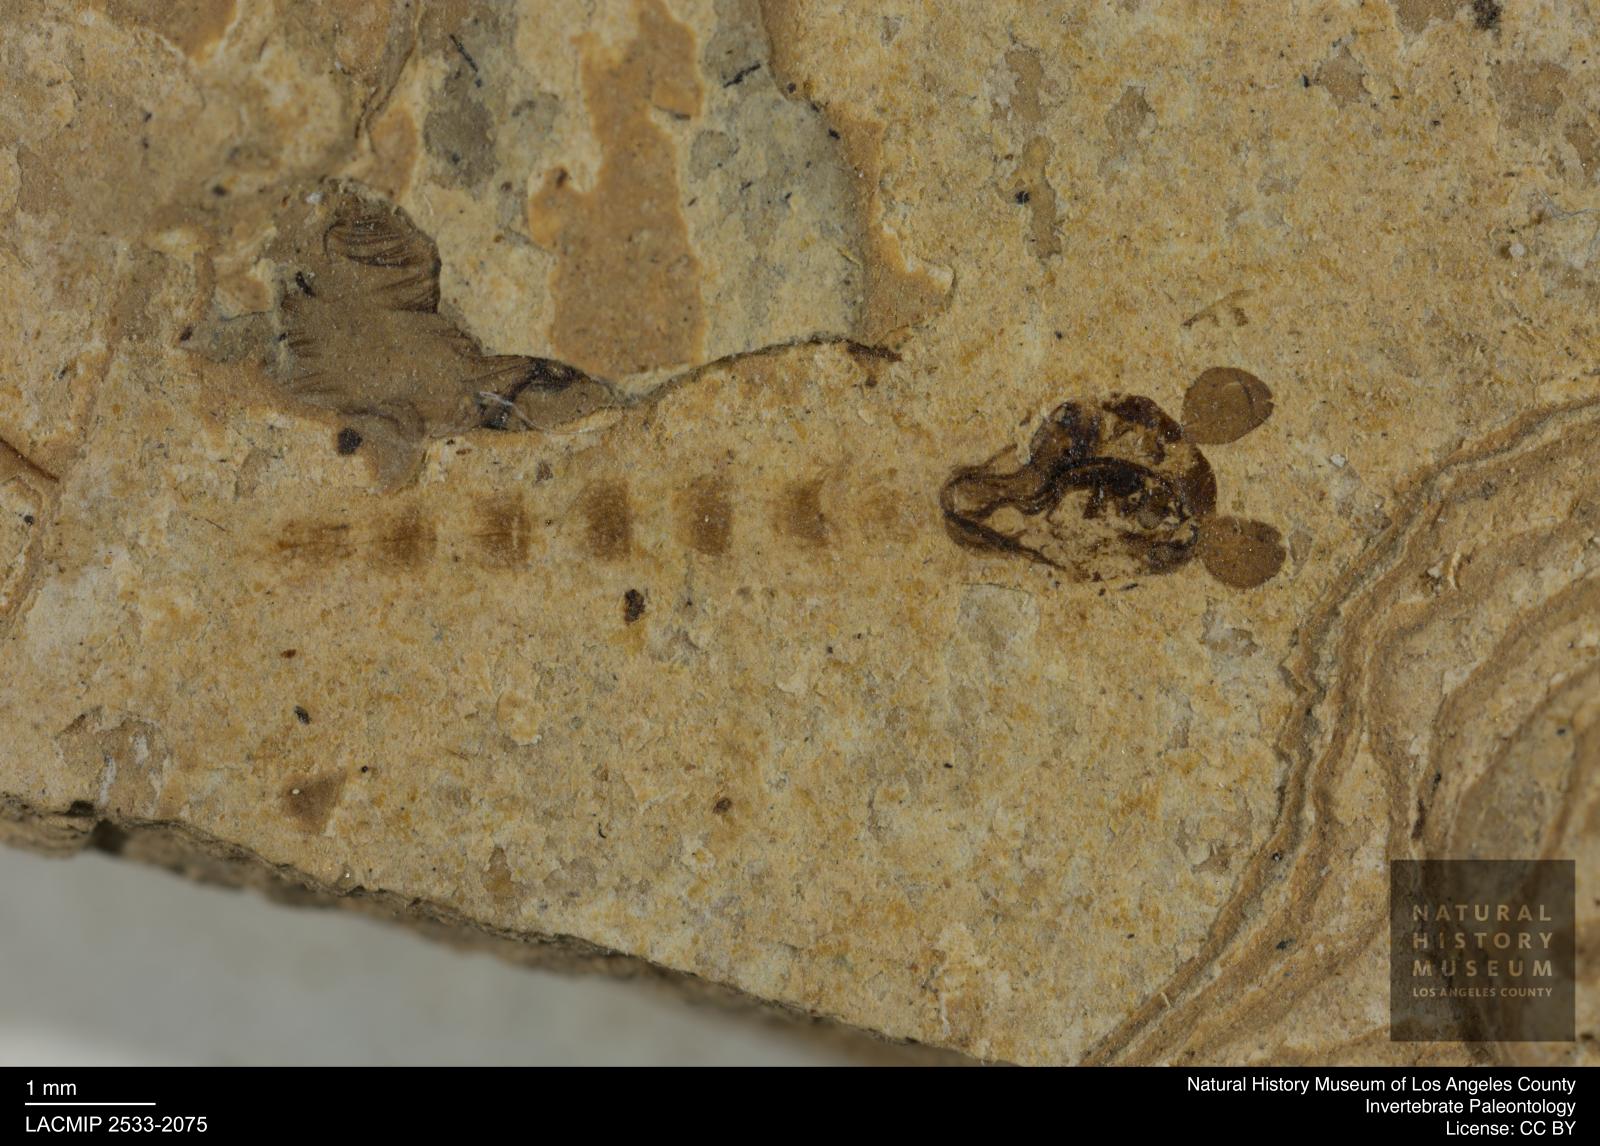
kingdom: Animalia
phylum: Arthropoda
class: Insecta
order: Diptera
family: Chironomidae
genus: Pelopiina
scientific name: Pelopiina
